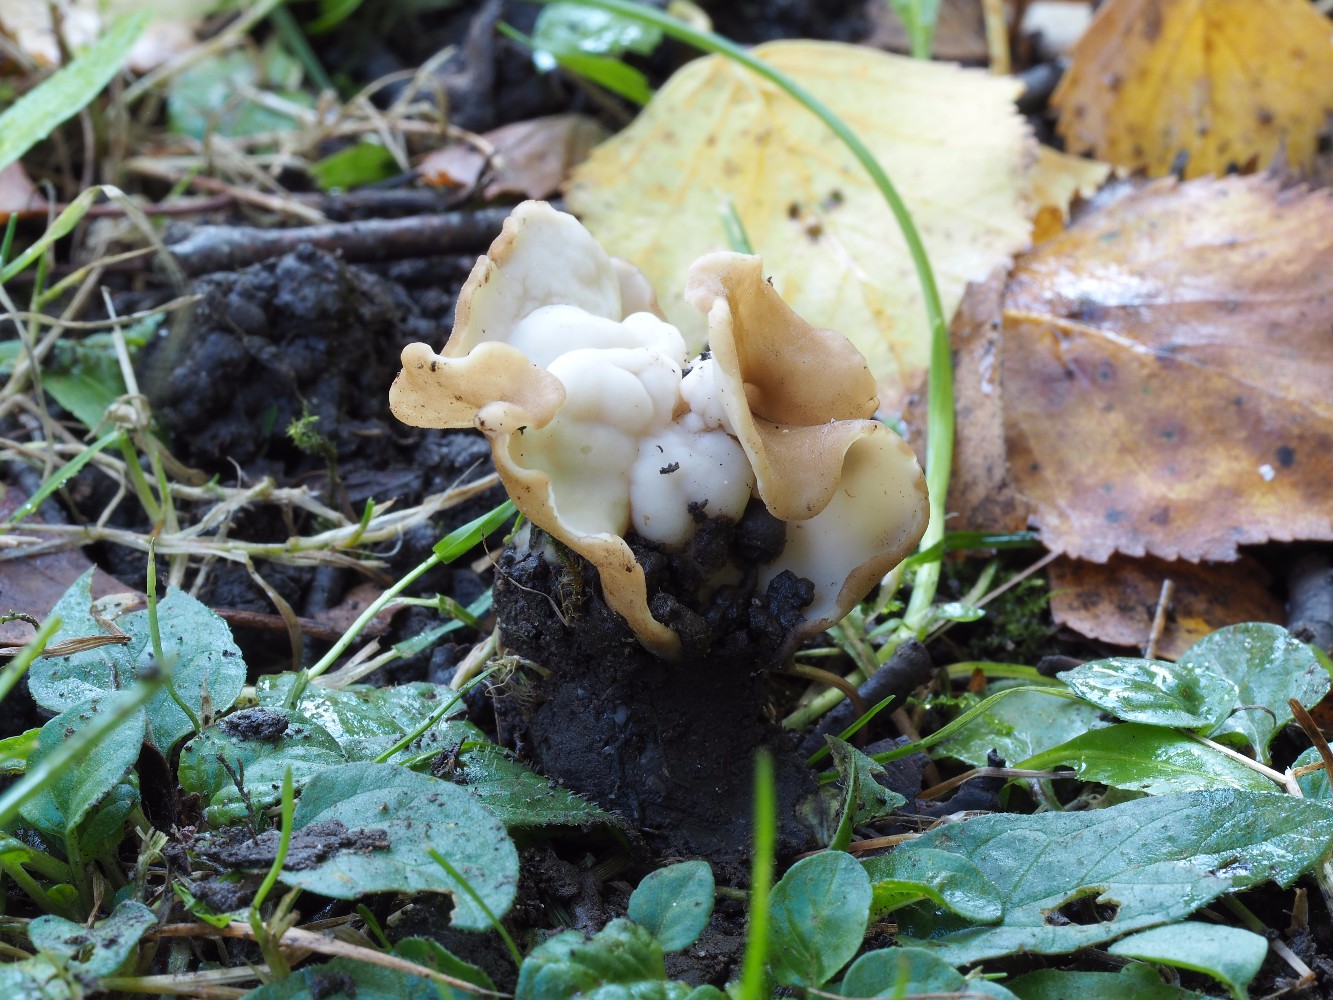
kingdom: Fungi
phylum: Ascomycota
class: Pezizomycetes
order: Pezizales
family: Helvellaceae
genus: Helvella
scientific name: Helvella crispa
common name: kruset foldhat
